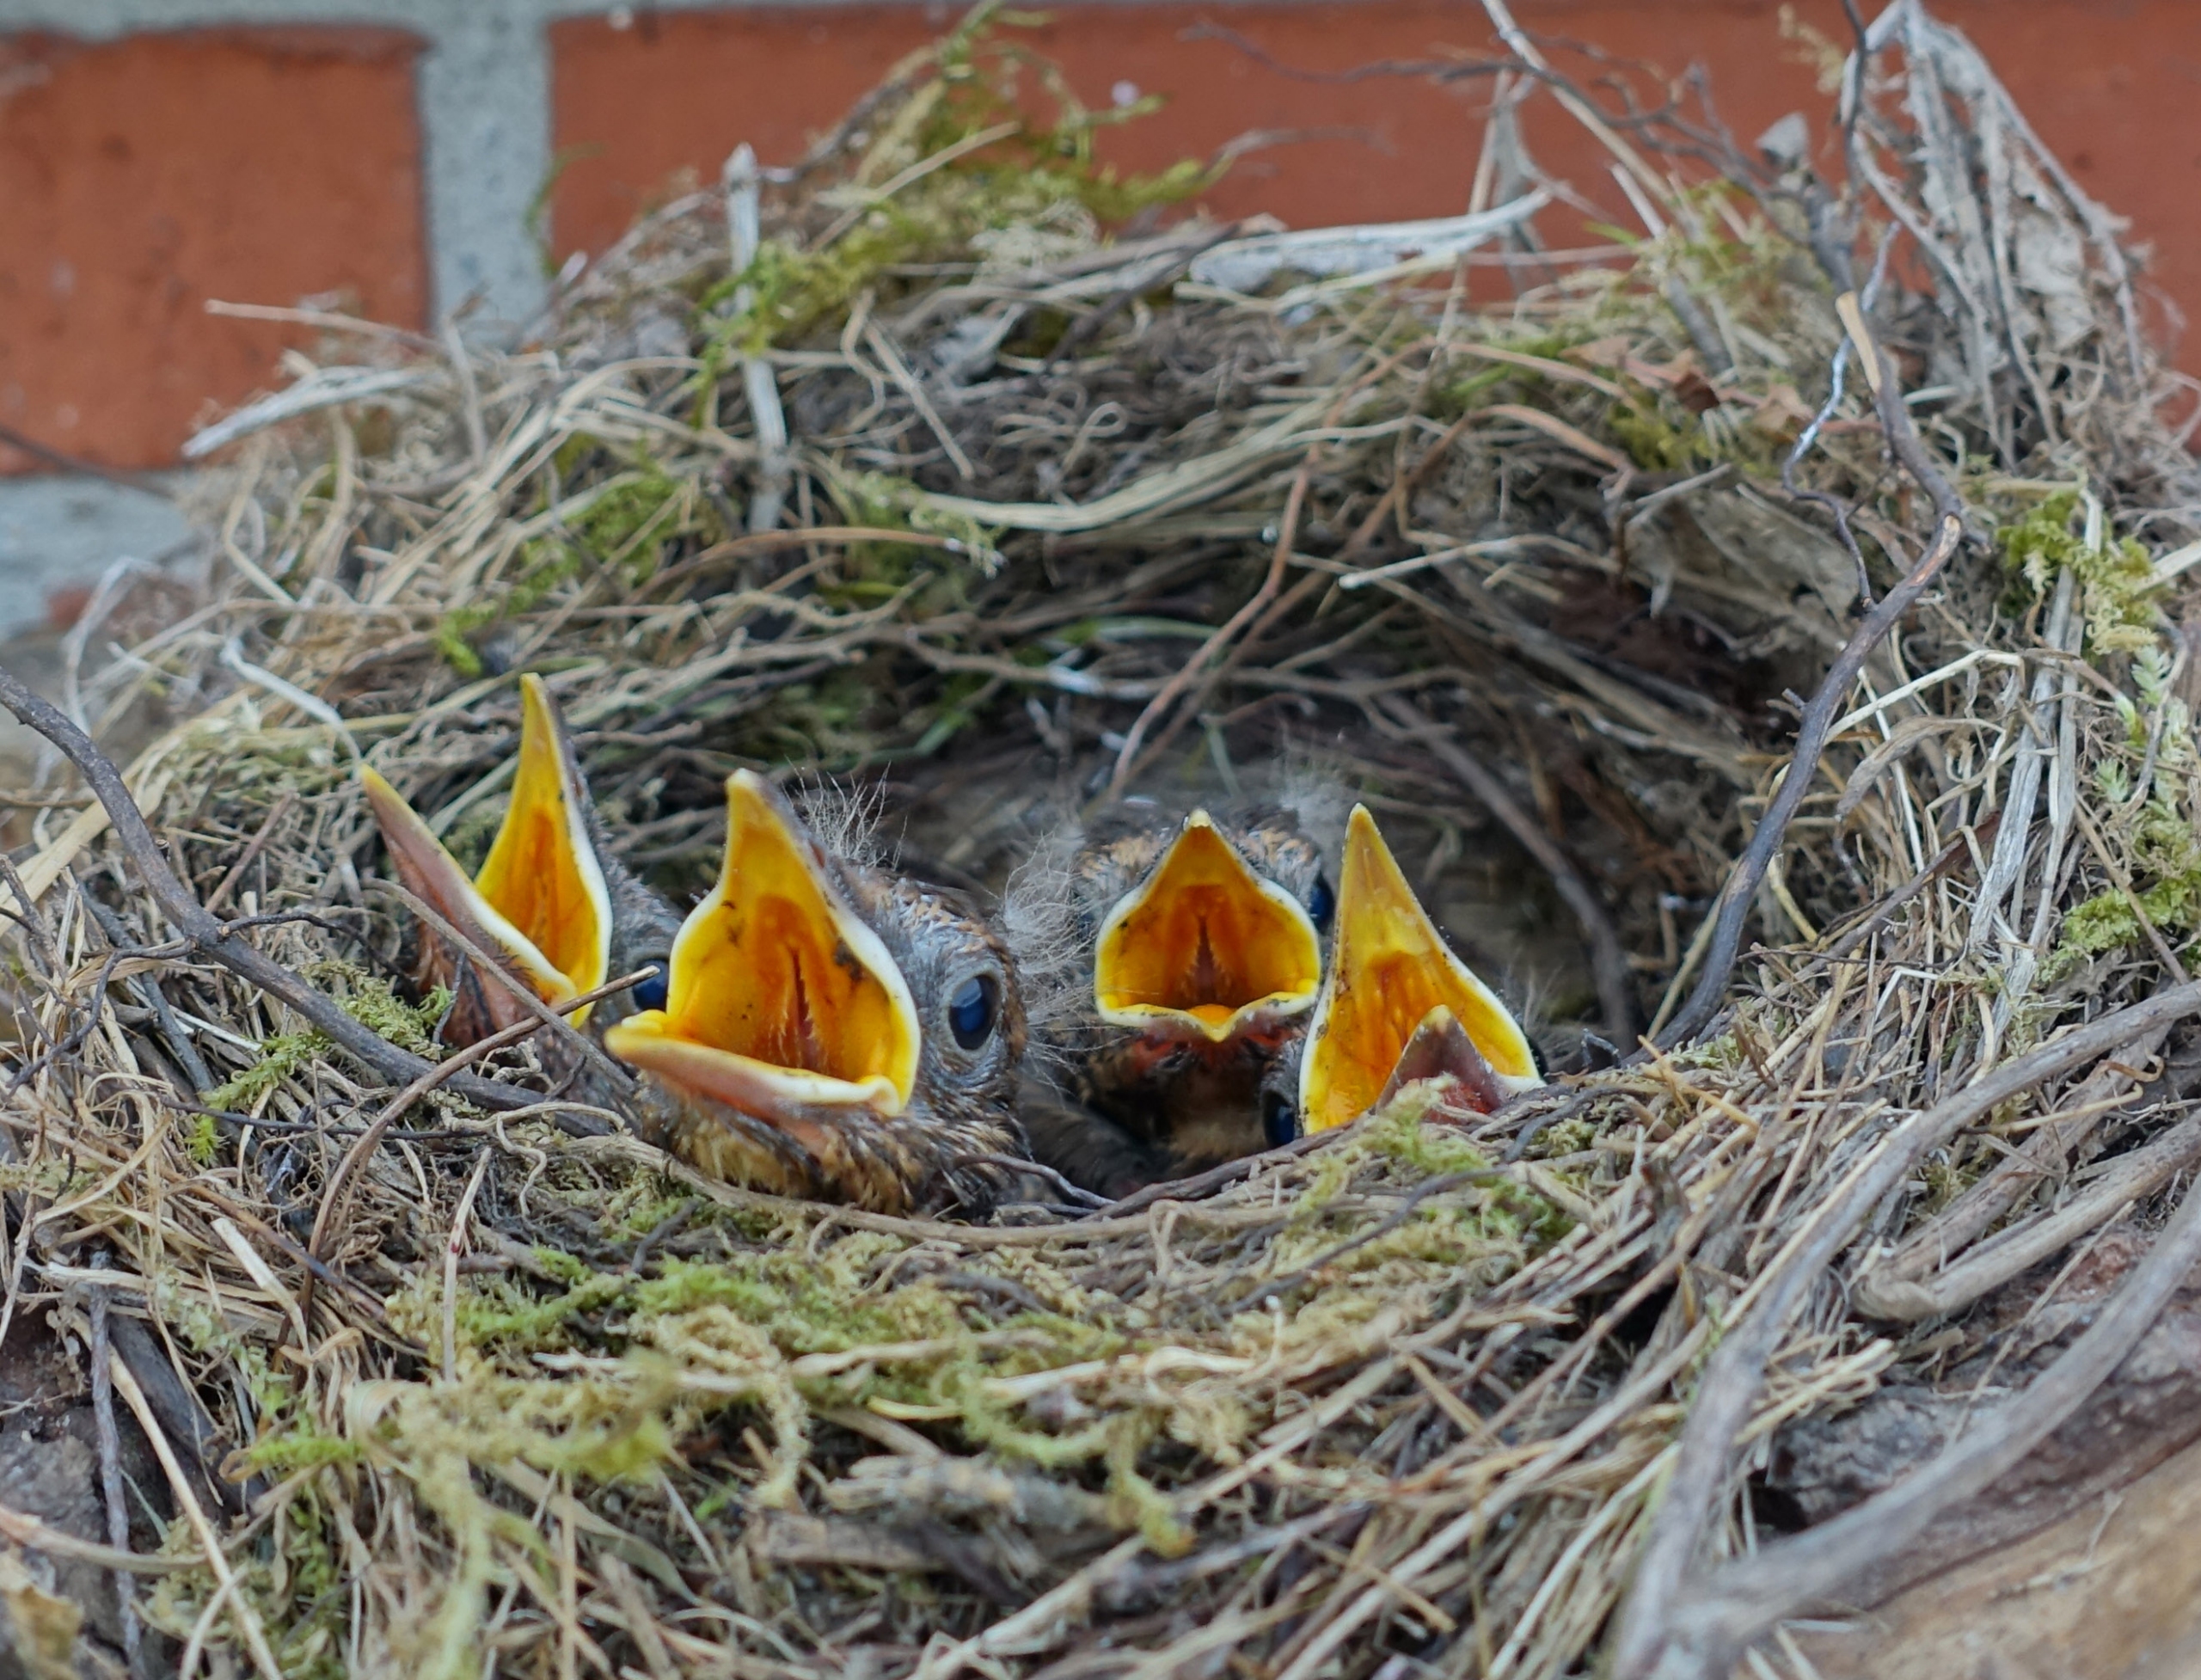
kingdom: Animalia
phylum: Chordata
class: Aves
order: Passeriformes
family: Turdidae
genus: Turdus
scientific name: Turdus merula
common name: Solsort
